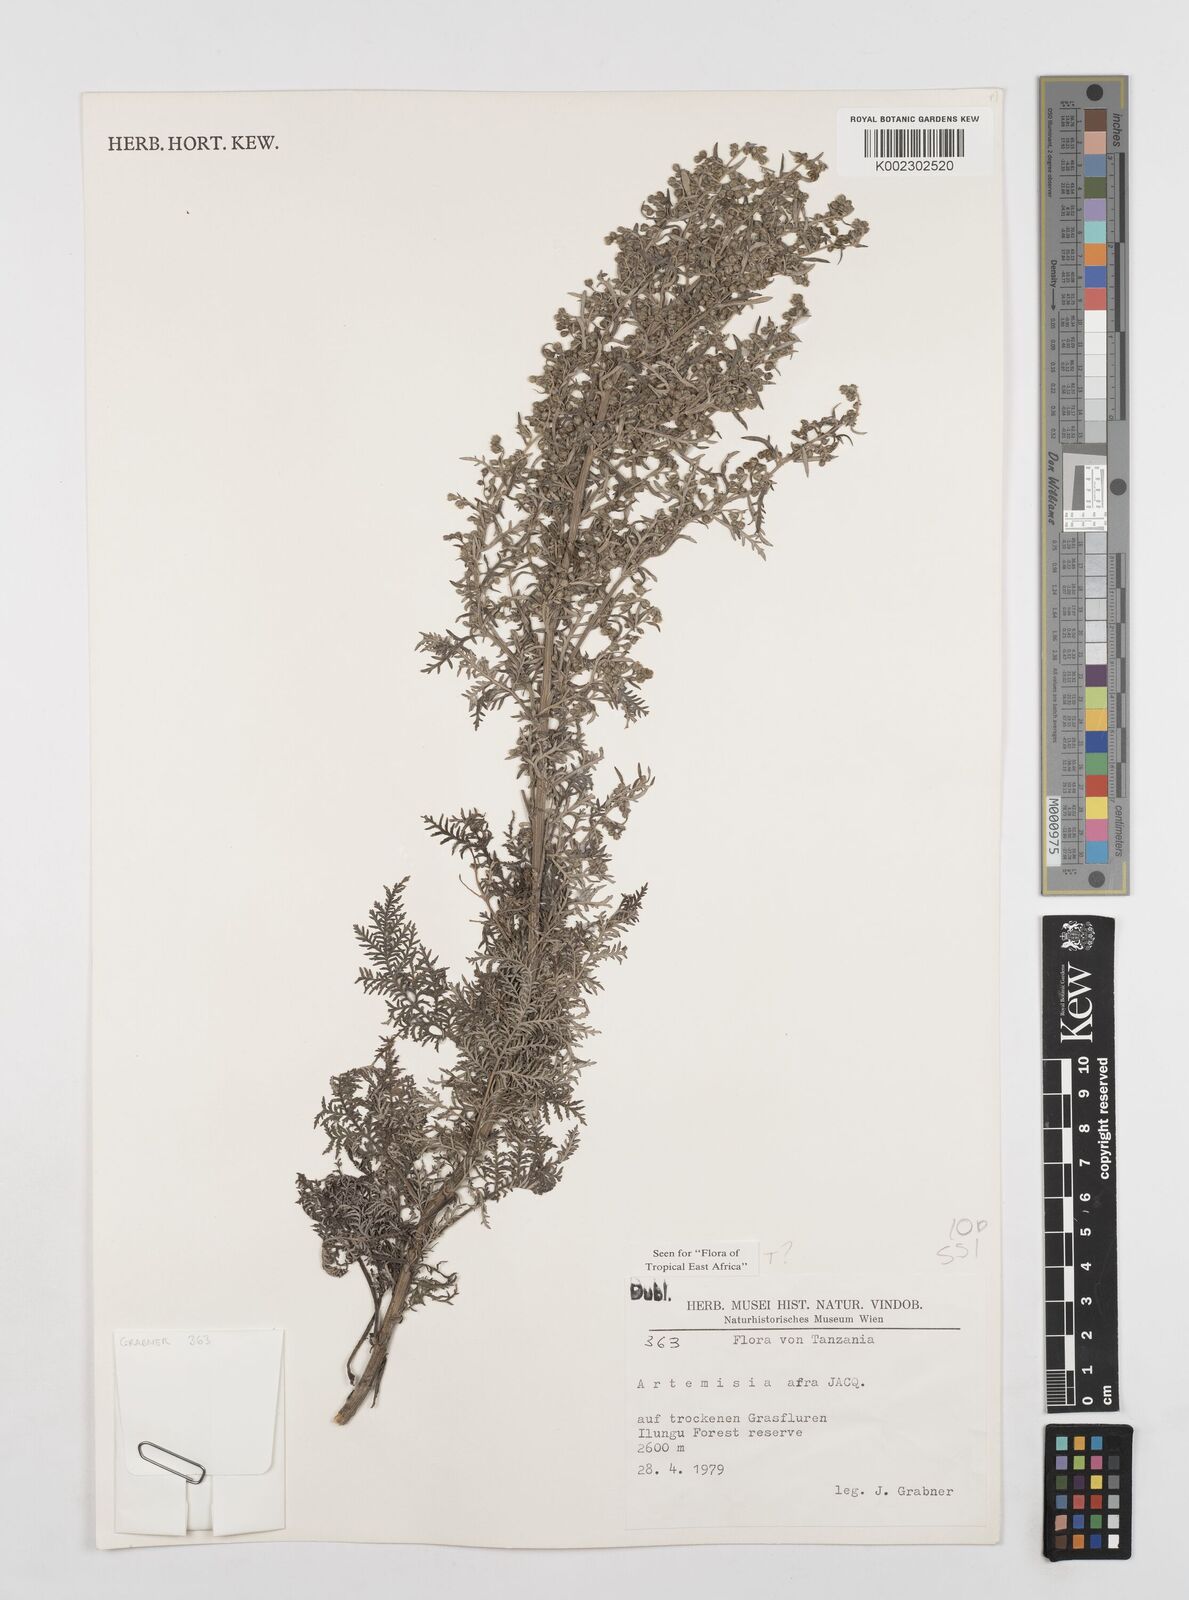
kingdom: Plantae
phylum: Tracheophyta
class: Magnoliopsida
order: Asterales
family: Asteraceae
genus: Artemisia
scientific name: Artemisia afra
